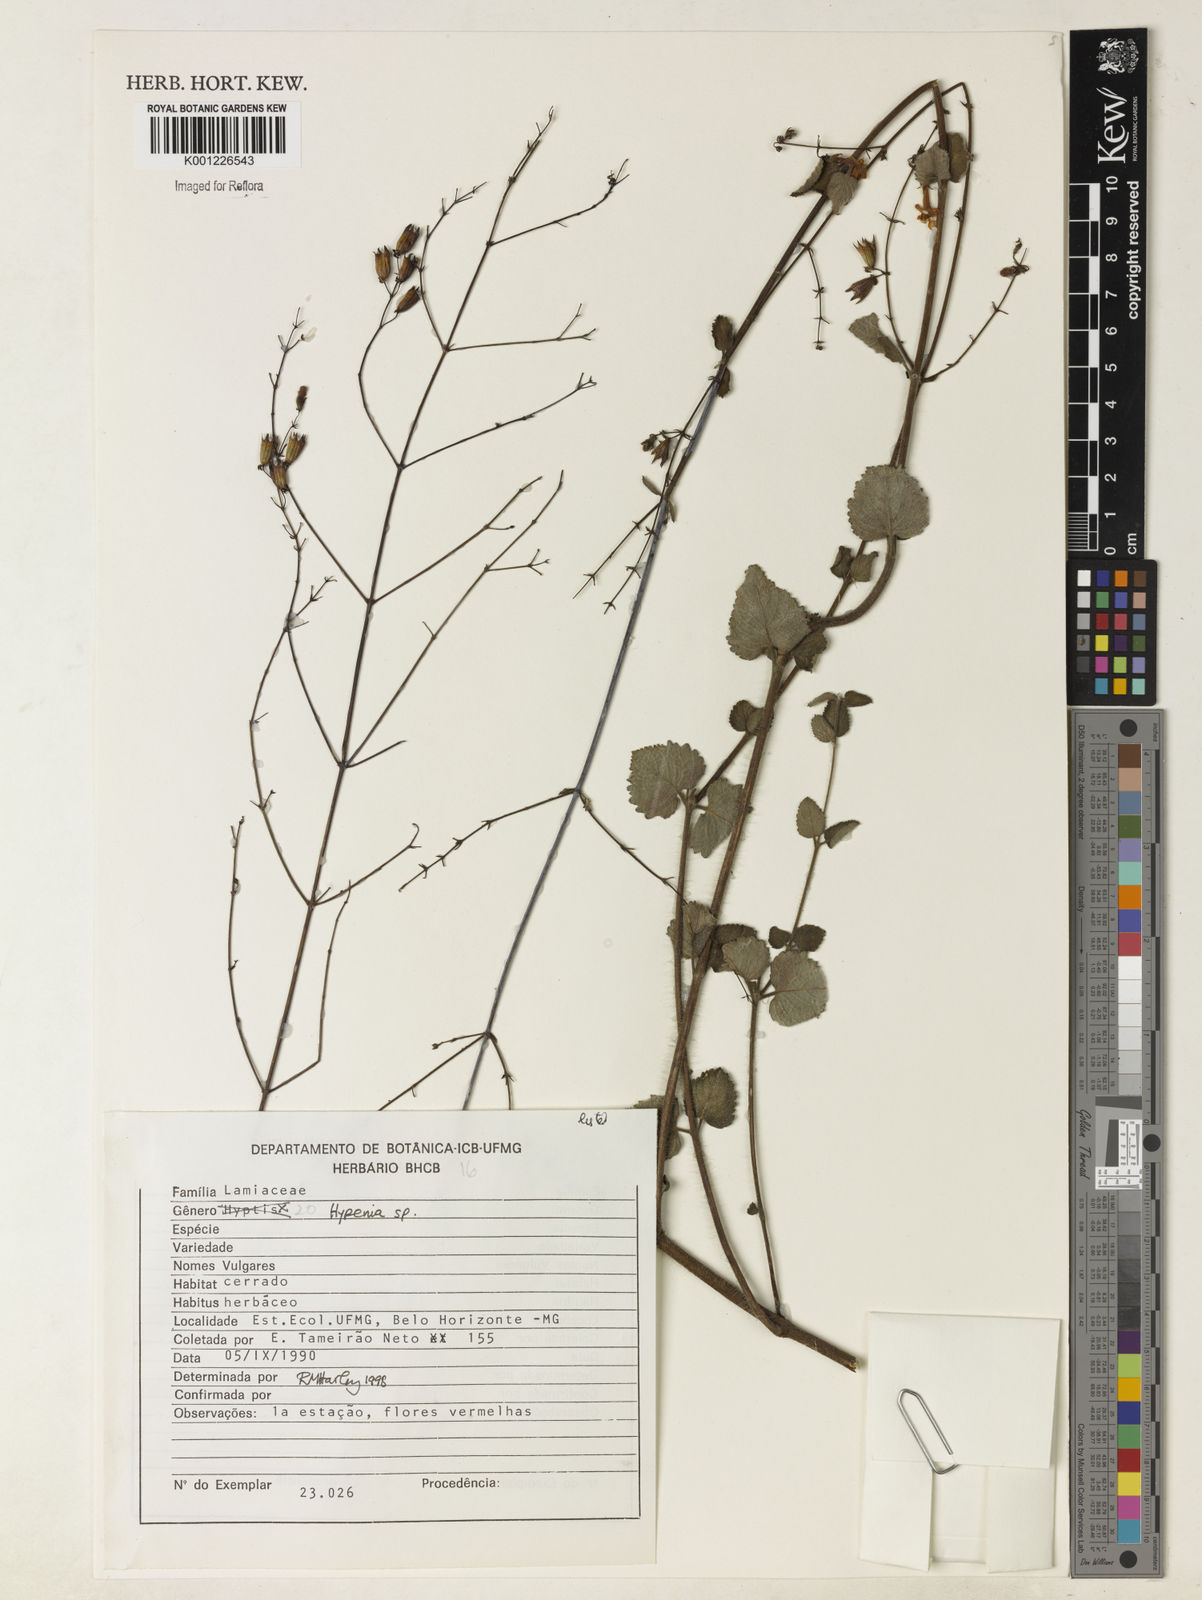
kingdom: Plantae
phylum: Tracheophyta
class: Magnoliopsida
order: Lamiales
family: Lamiaceae
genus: Hypenia
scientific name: Hypenia
